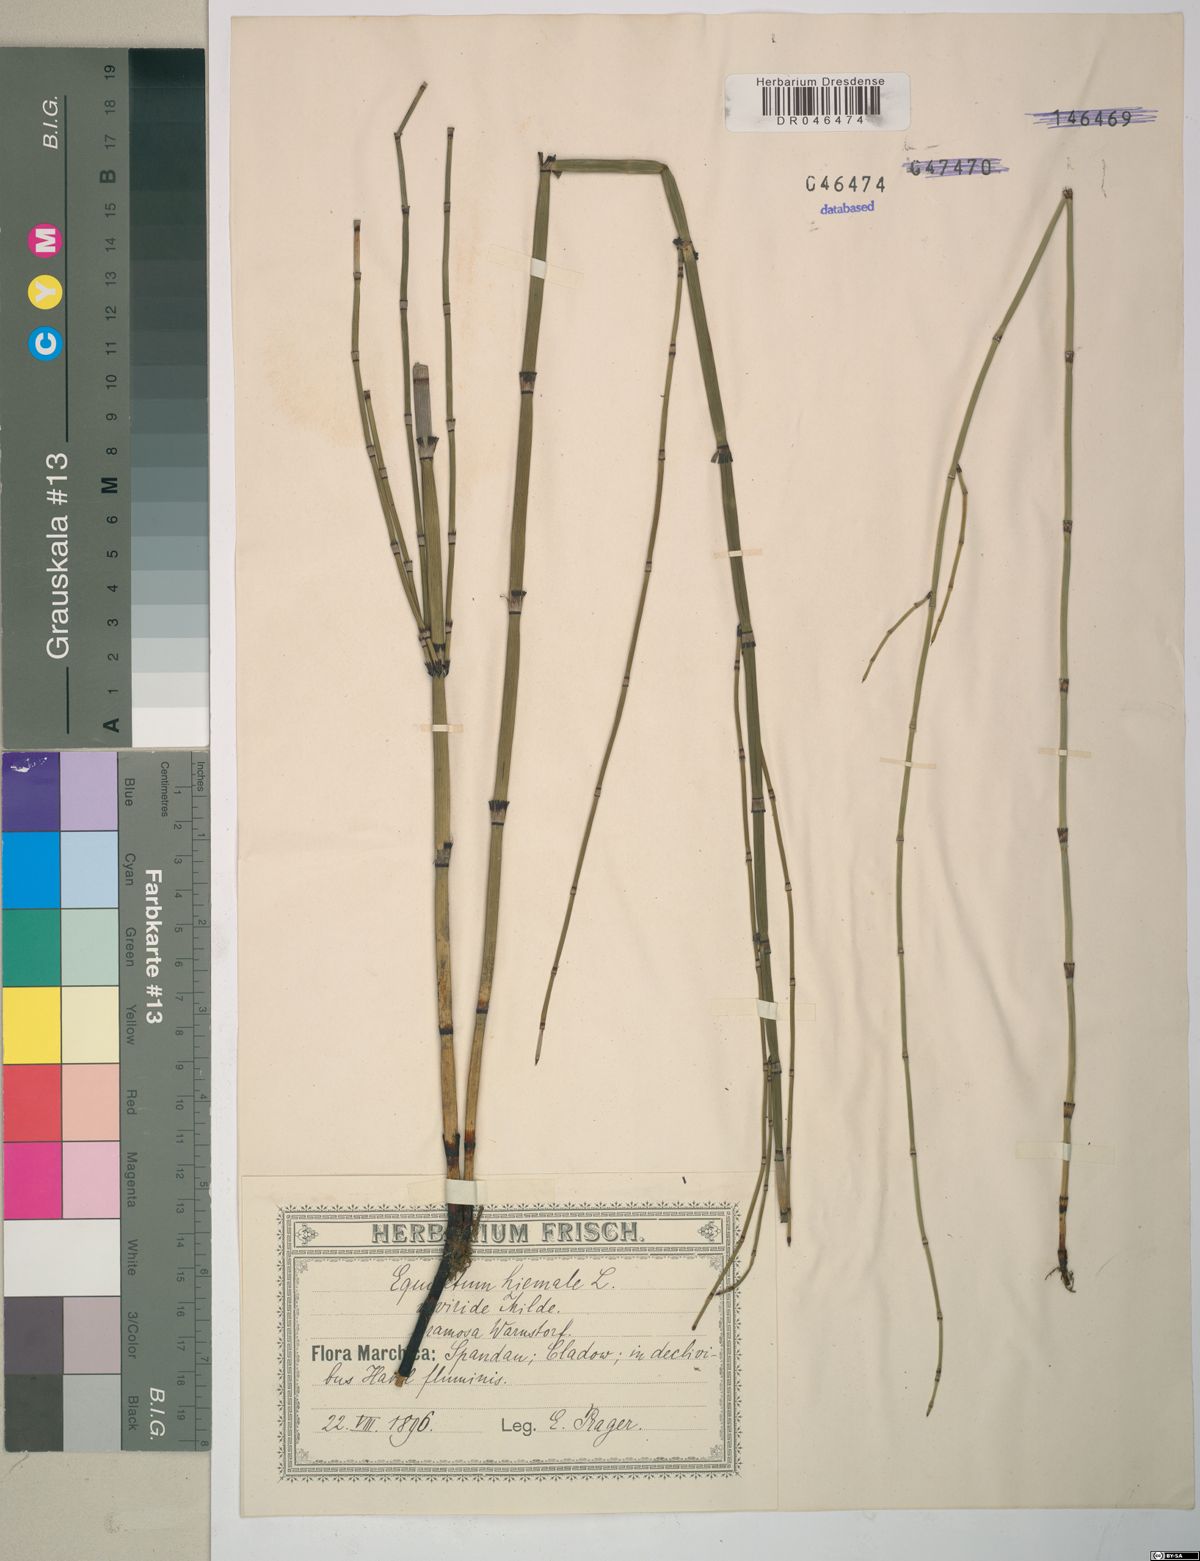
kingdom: Plantae
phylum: Tracheophyta
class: Polypodiopsida
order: Equisetales
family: Equisetaceae
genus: Equisetum
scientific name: Equisetum hyemale
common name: Rough horsetail
